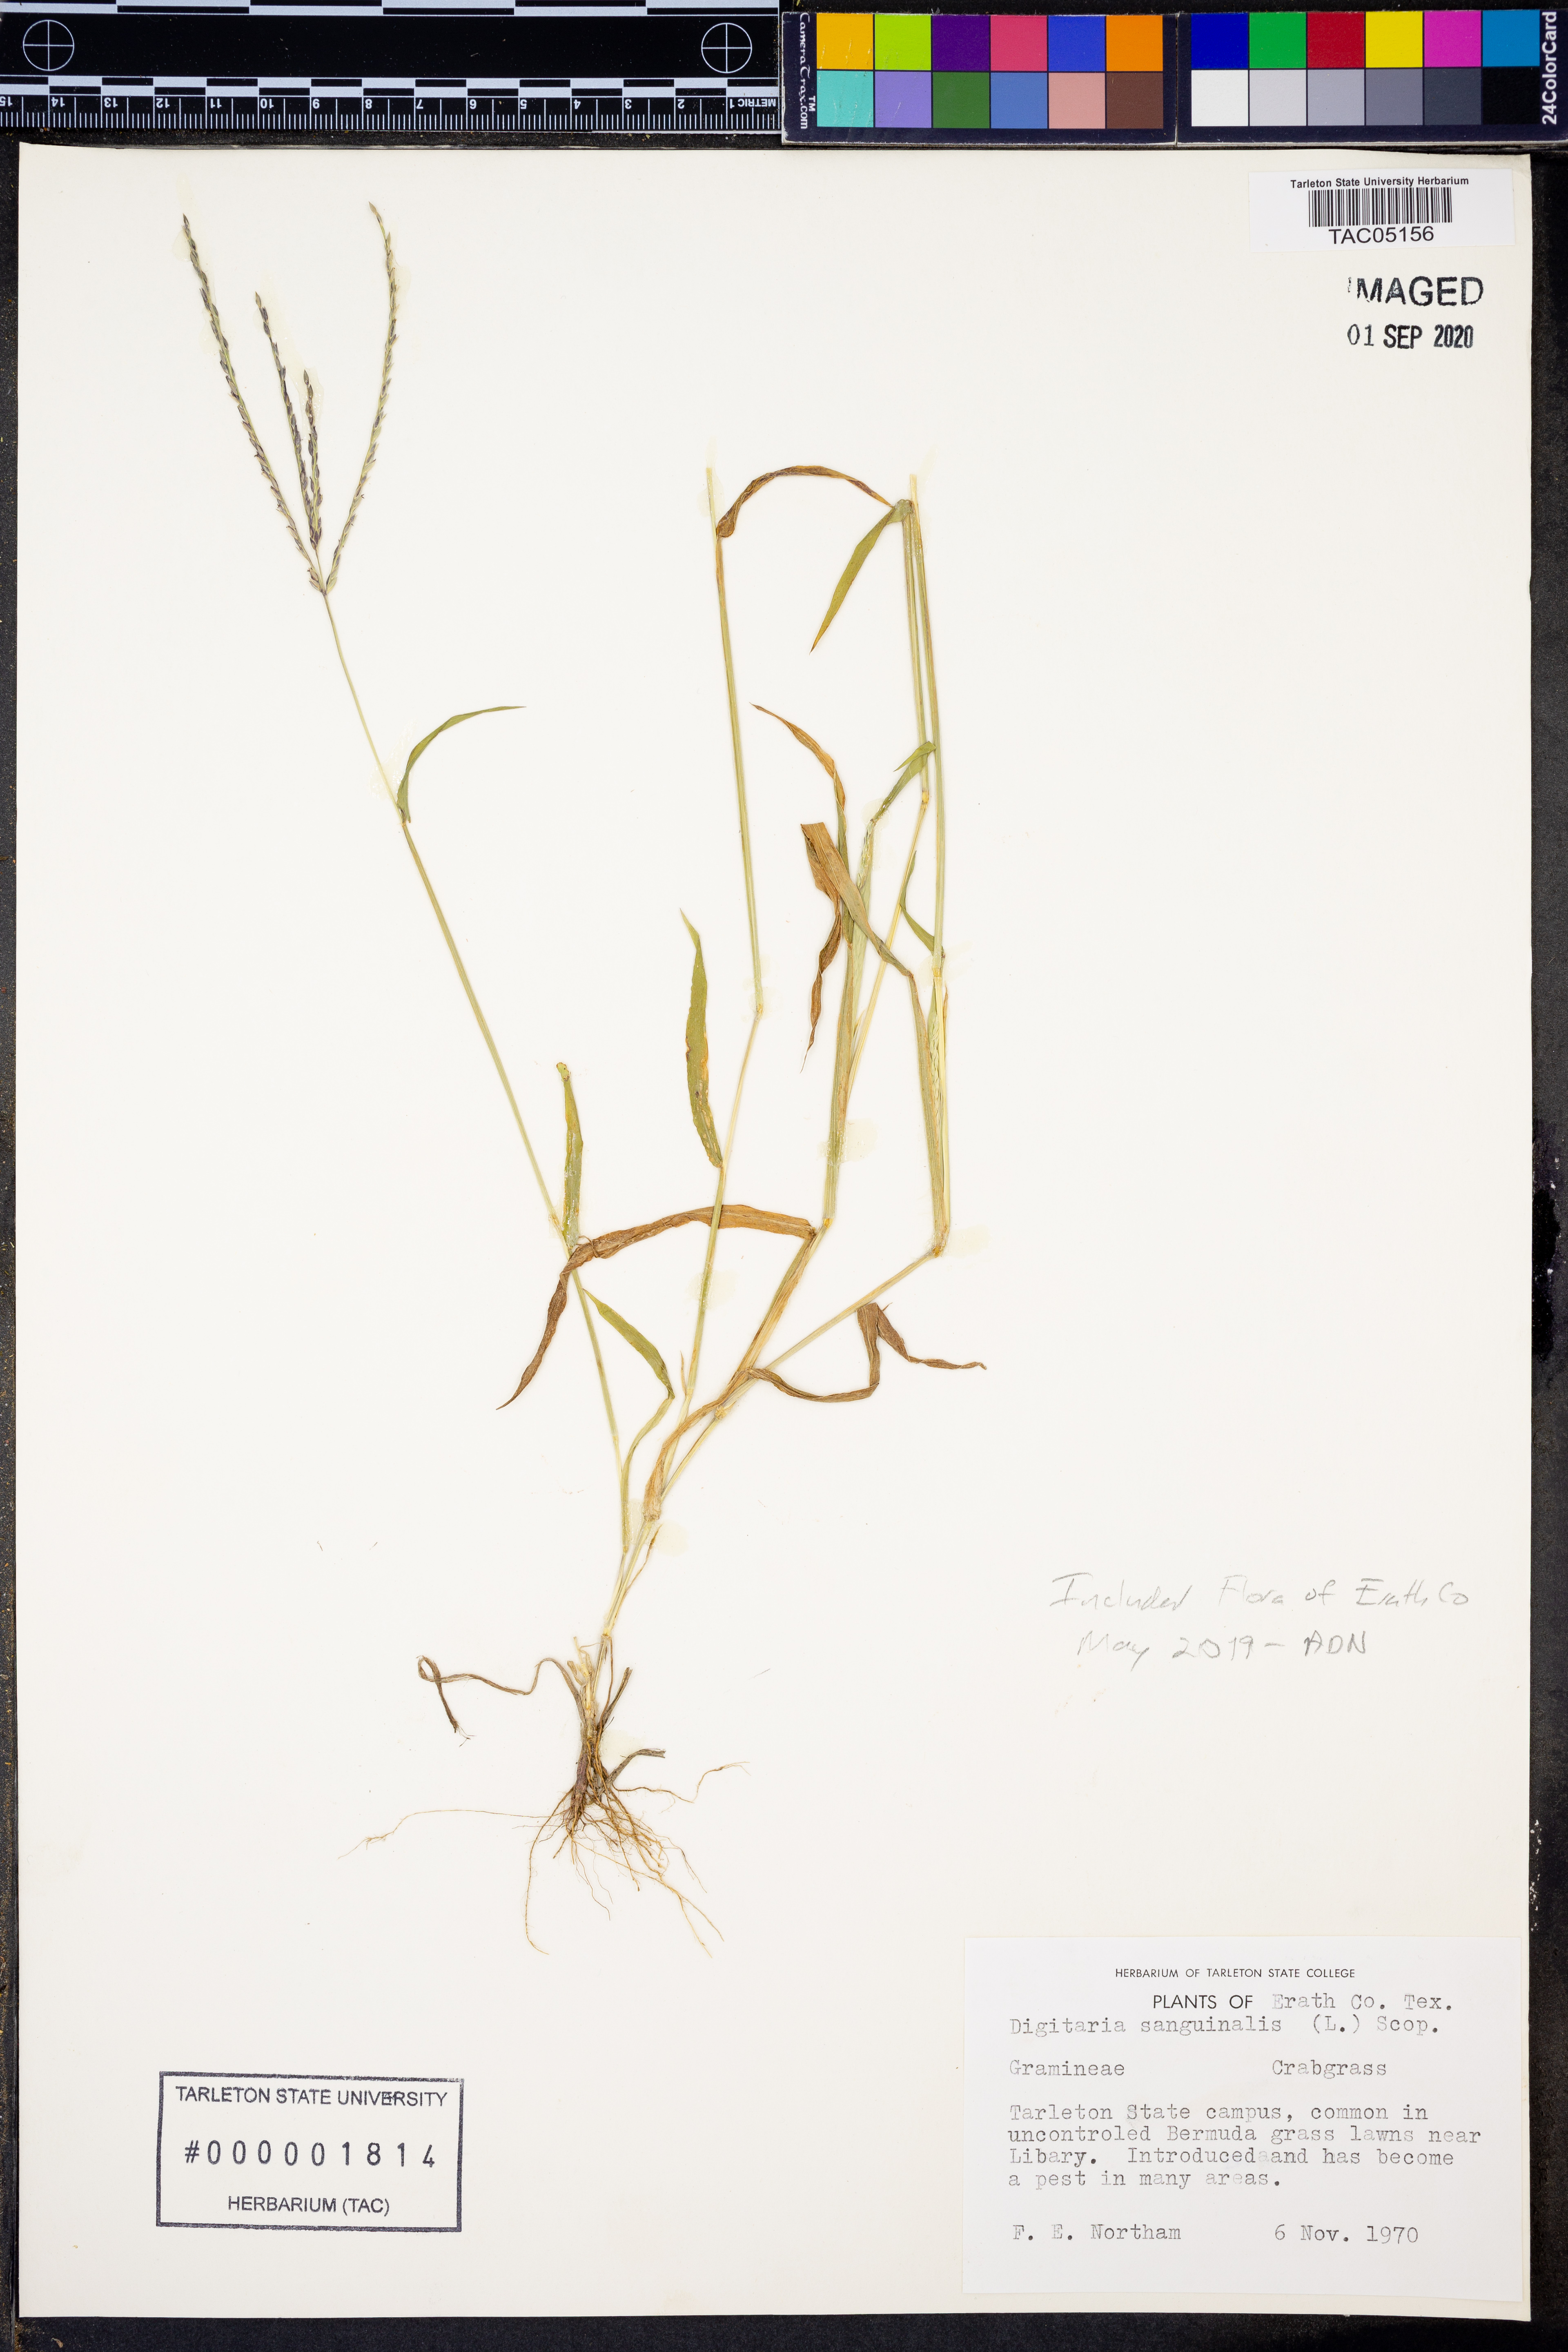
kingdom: Plantae
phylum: Tracheophyta
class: Liliopsida
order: Poales
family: Poaceae
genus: Digitaria
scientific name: Digitaria sanguinalis
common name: Hairy crabgrass
